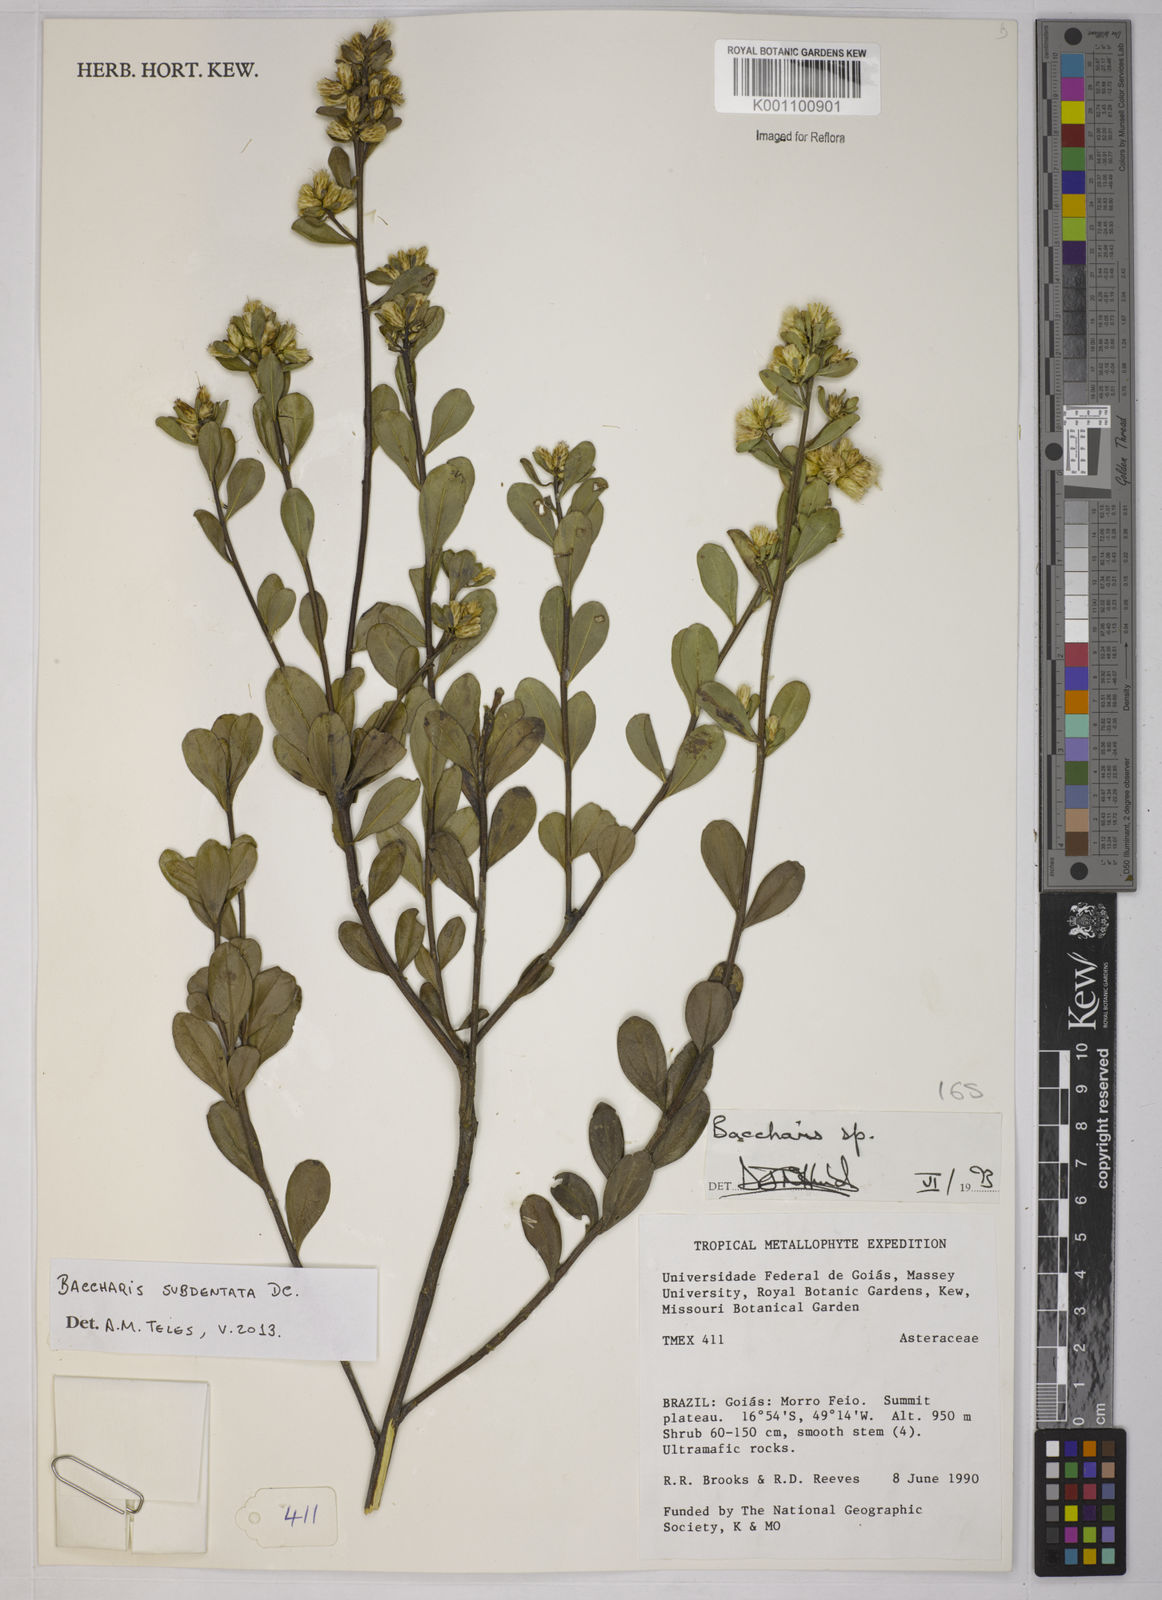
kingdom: Plantae
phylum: Tracheophyta
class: Magnoliopsida
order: Asterales
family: Asteraceae
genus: Baccharis
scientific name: Baccharis subdentata
